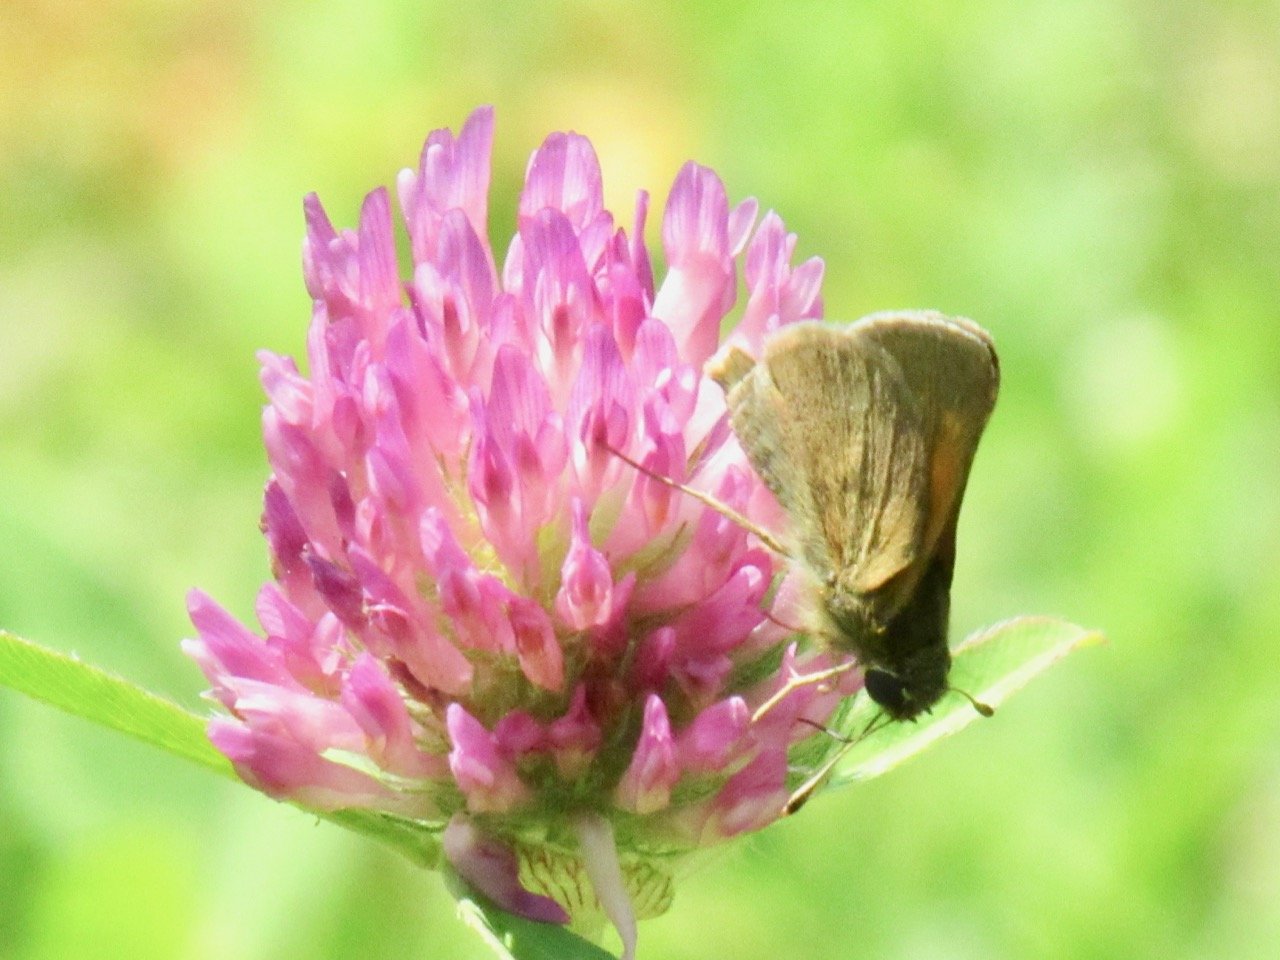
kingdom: Animalia
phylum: Arthropoda
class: Insecta
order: Lepidoptera
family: Hesperiidae
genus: Polites
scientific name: Polites themistocles
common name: Tawny-edged Skipper
